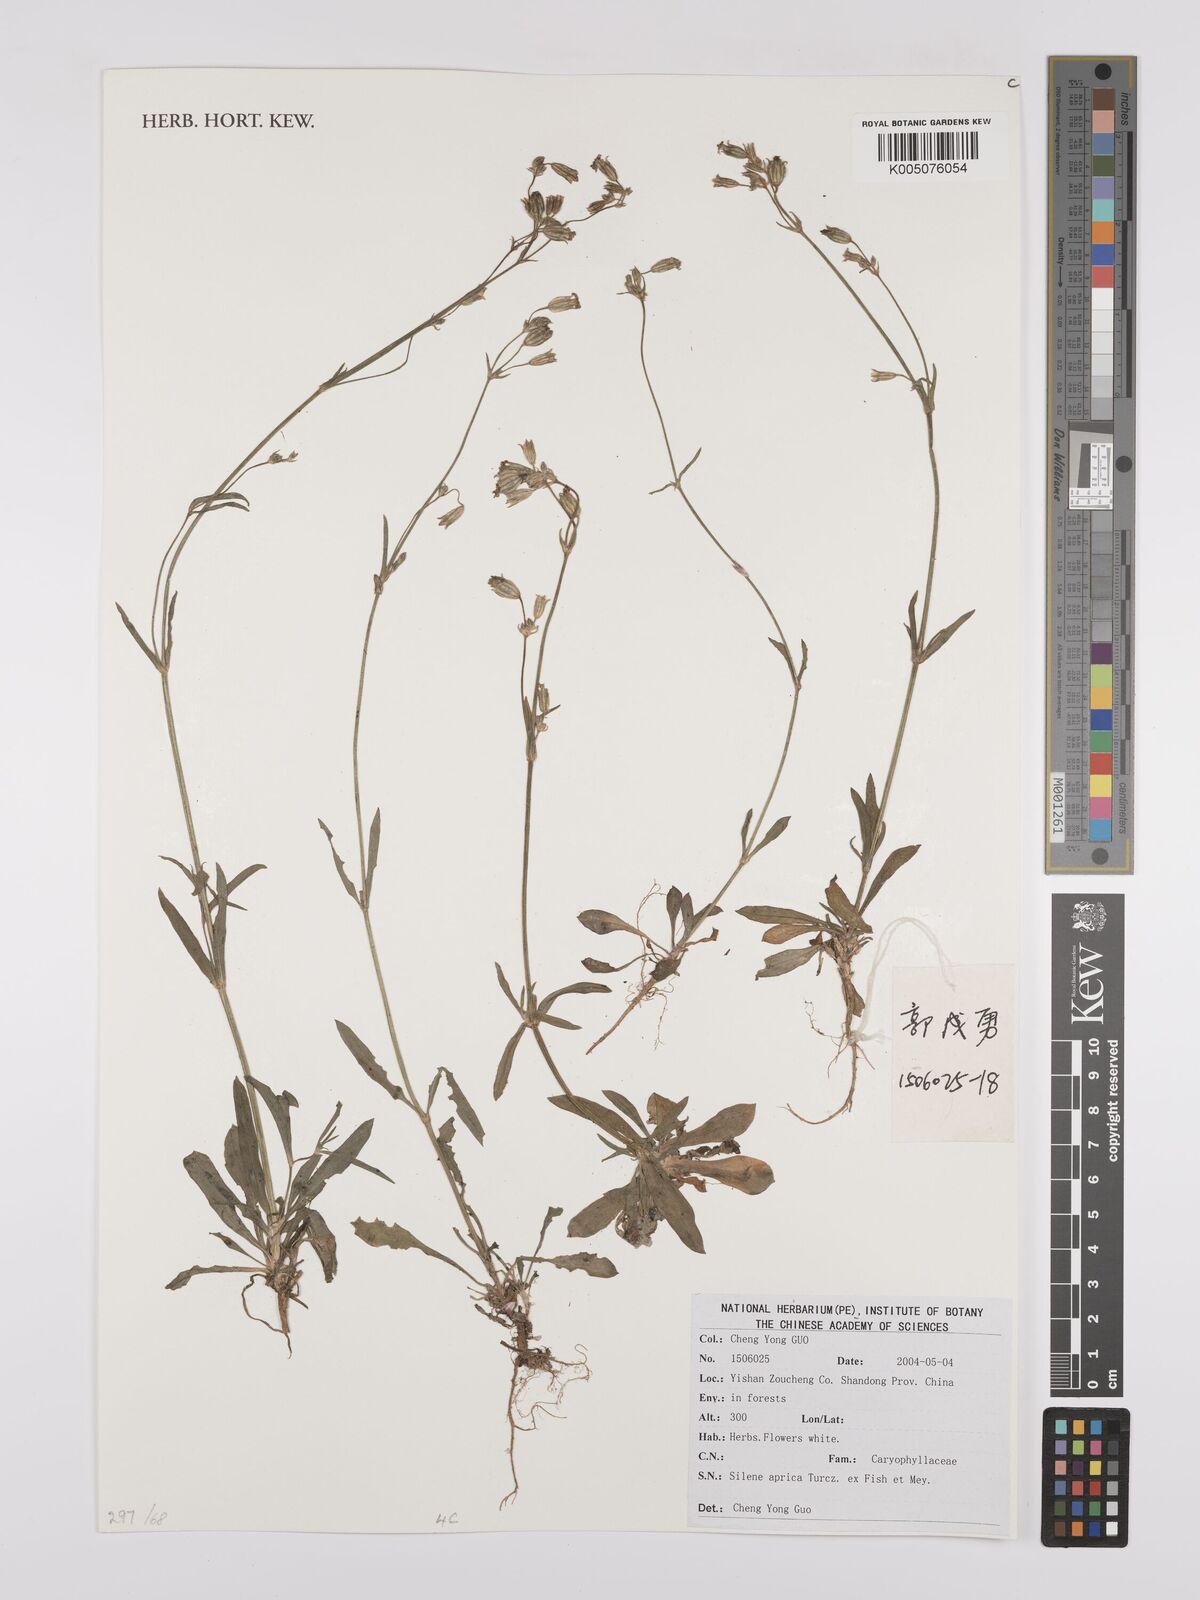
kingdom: Plantae
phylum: Tracheophyta
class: Magnoliopsida
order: Caryophyllales
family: Caryophyllaceae
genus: Silene
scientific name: Silene aprica
